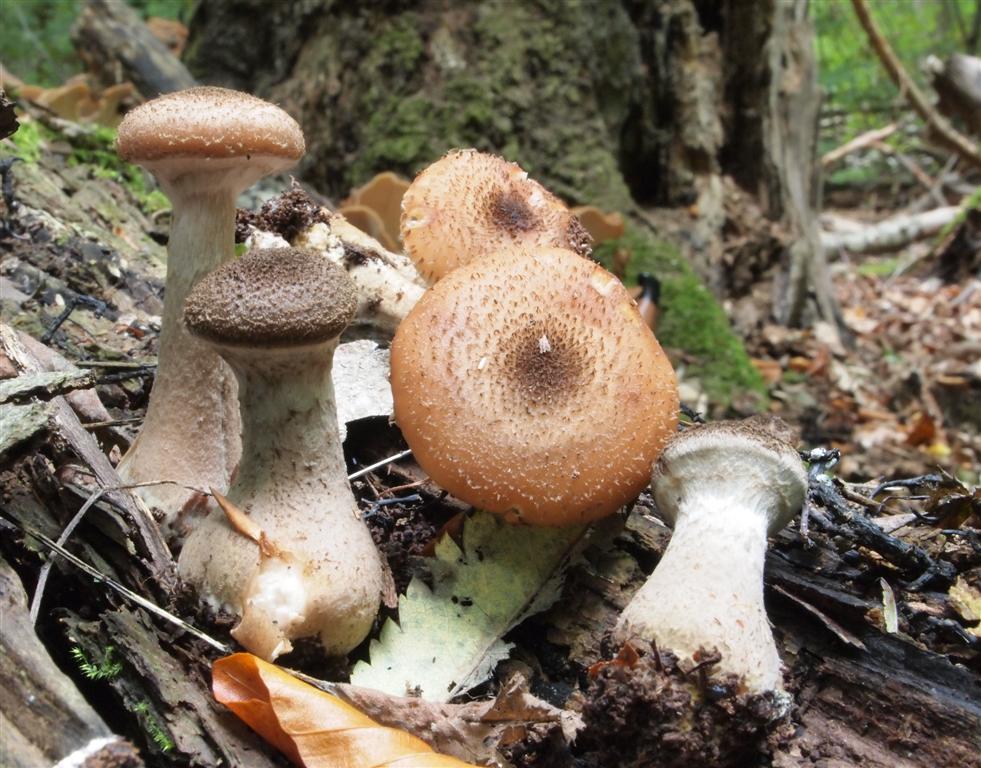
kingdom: Fungi
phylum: Basidiomycota
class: Agaricomycetes
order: Agaricales
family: Physalacriaceae
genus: Armillaria
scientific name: Armillaria lutea
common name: køllestokket honningsvamp
